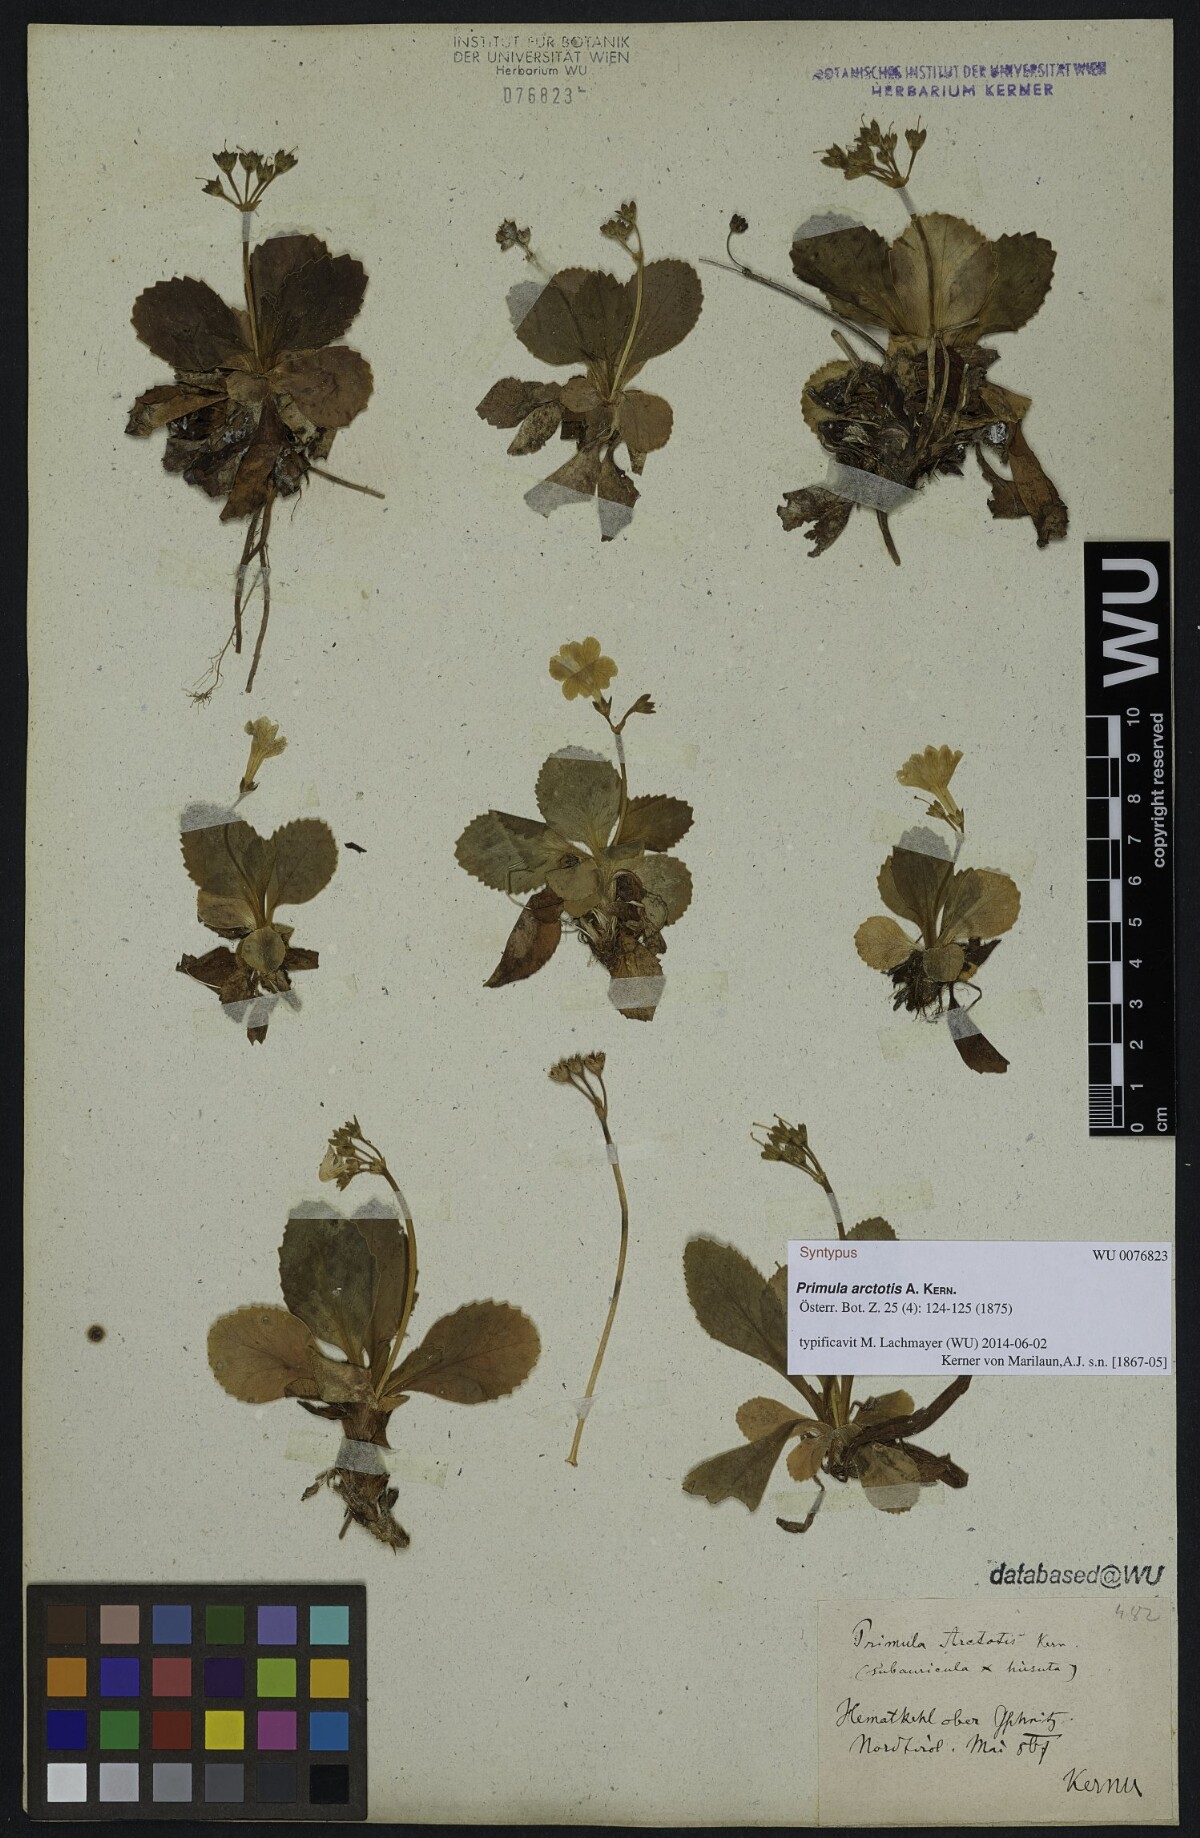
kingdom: Plantae
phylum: Tracheophyta
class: Magnoliopsida
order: Ericales
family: Primulaceae
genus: Primula
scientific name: Primula arctotis
